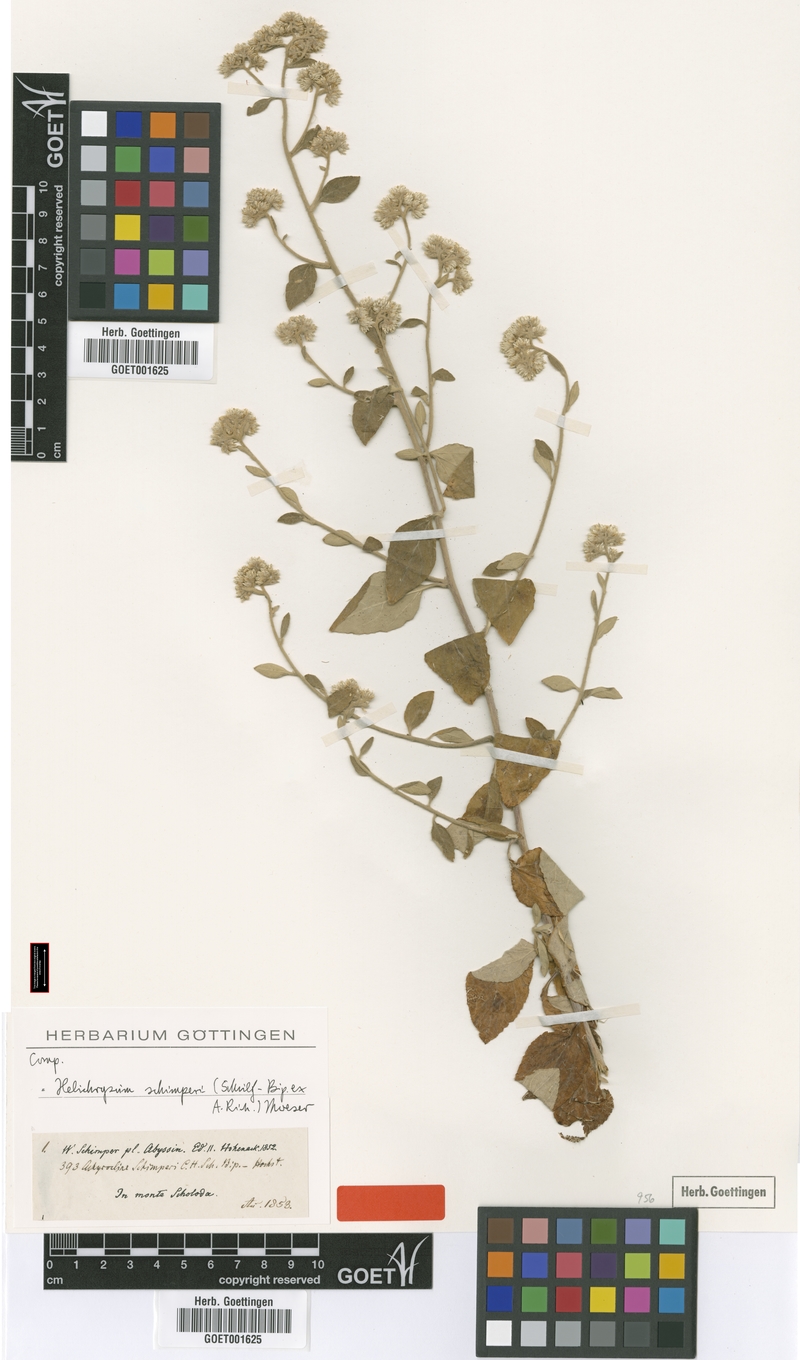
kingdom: Plantae
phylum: Tracheophyta
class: Magnoliopsida
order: Asterales
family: Asteraceae
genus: Helichrysum
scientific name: Helichrysum schimperi
